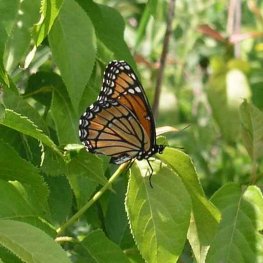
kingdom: Animalia
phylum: Arthropoda
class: Insecta
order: Lepidoptera
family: Nymphalidae
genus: Limenitis
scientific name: Limenitis archippus
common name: Viceroy
